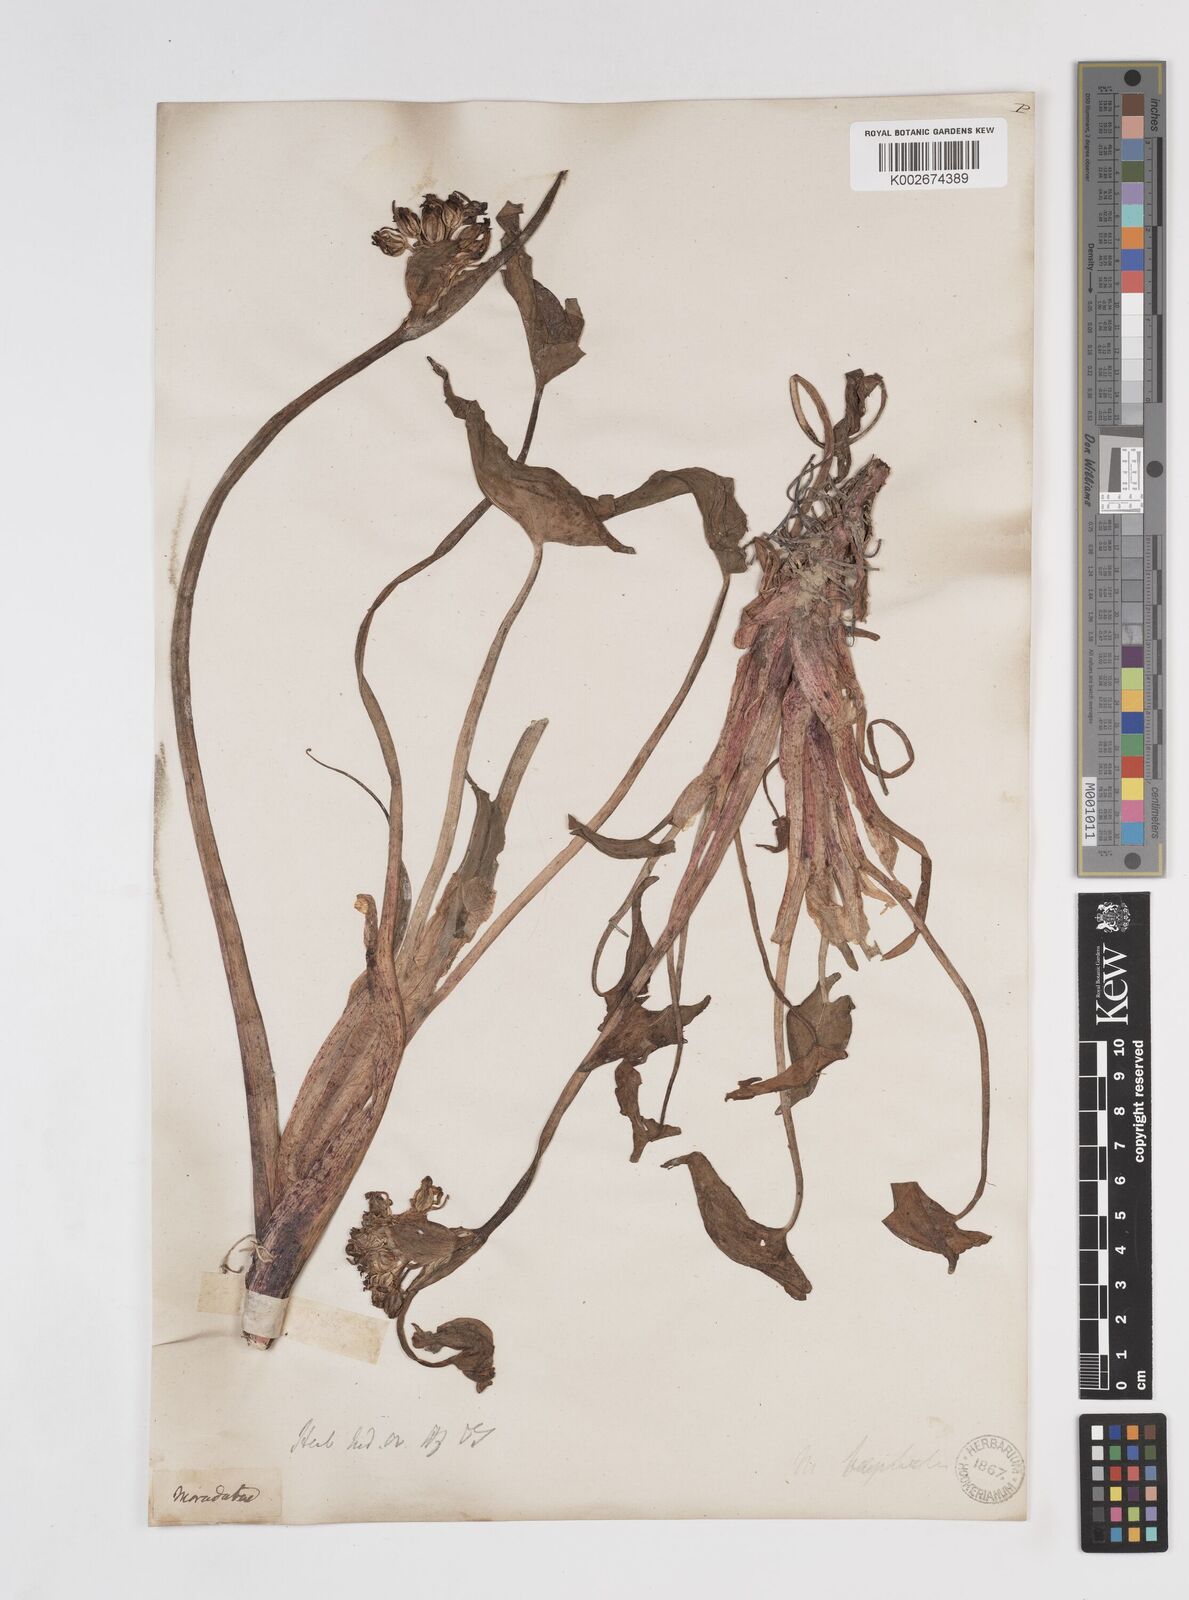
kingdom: Plantae
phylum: Tracheophyta
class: Liliopsida
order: Commelinales
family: Pontederiaceae
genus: Pontederia
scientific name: Pontederia hastata
